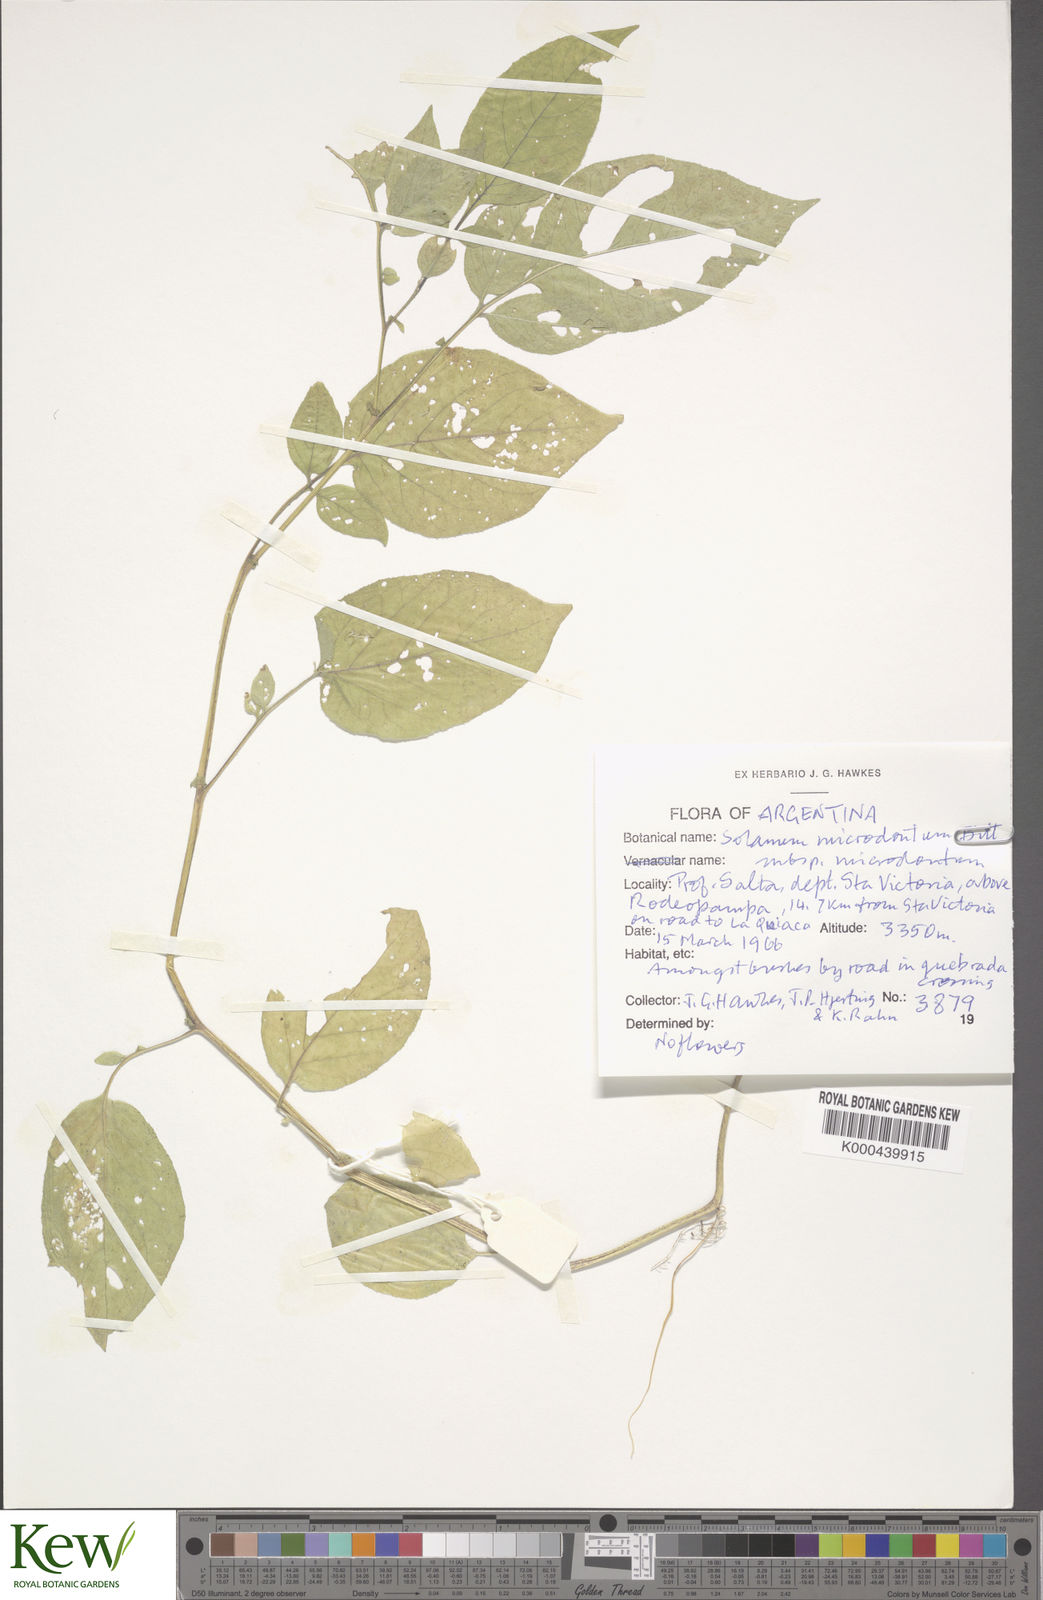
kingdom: Plantae
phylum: Tracheophyta
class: Magnoliopsida
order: Solanales
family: Solanaceae
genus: Solanum
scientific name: Solanum microdontum
